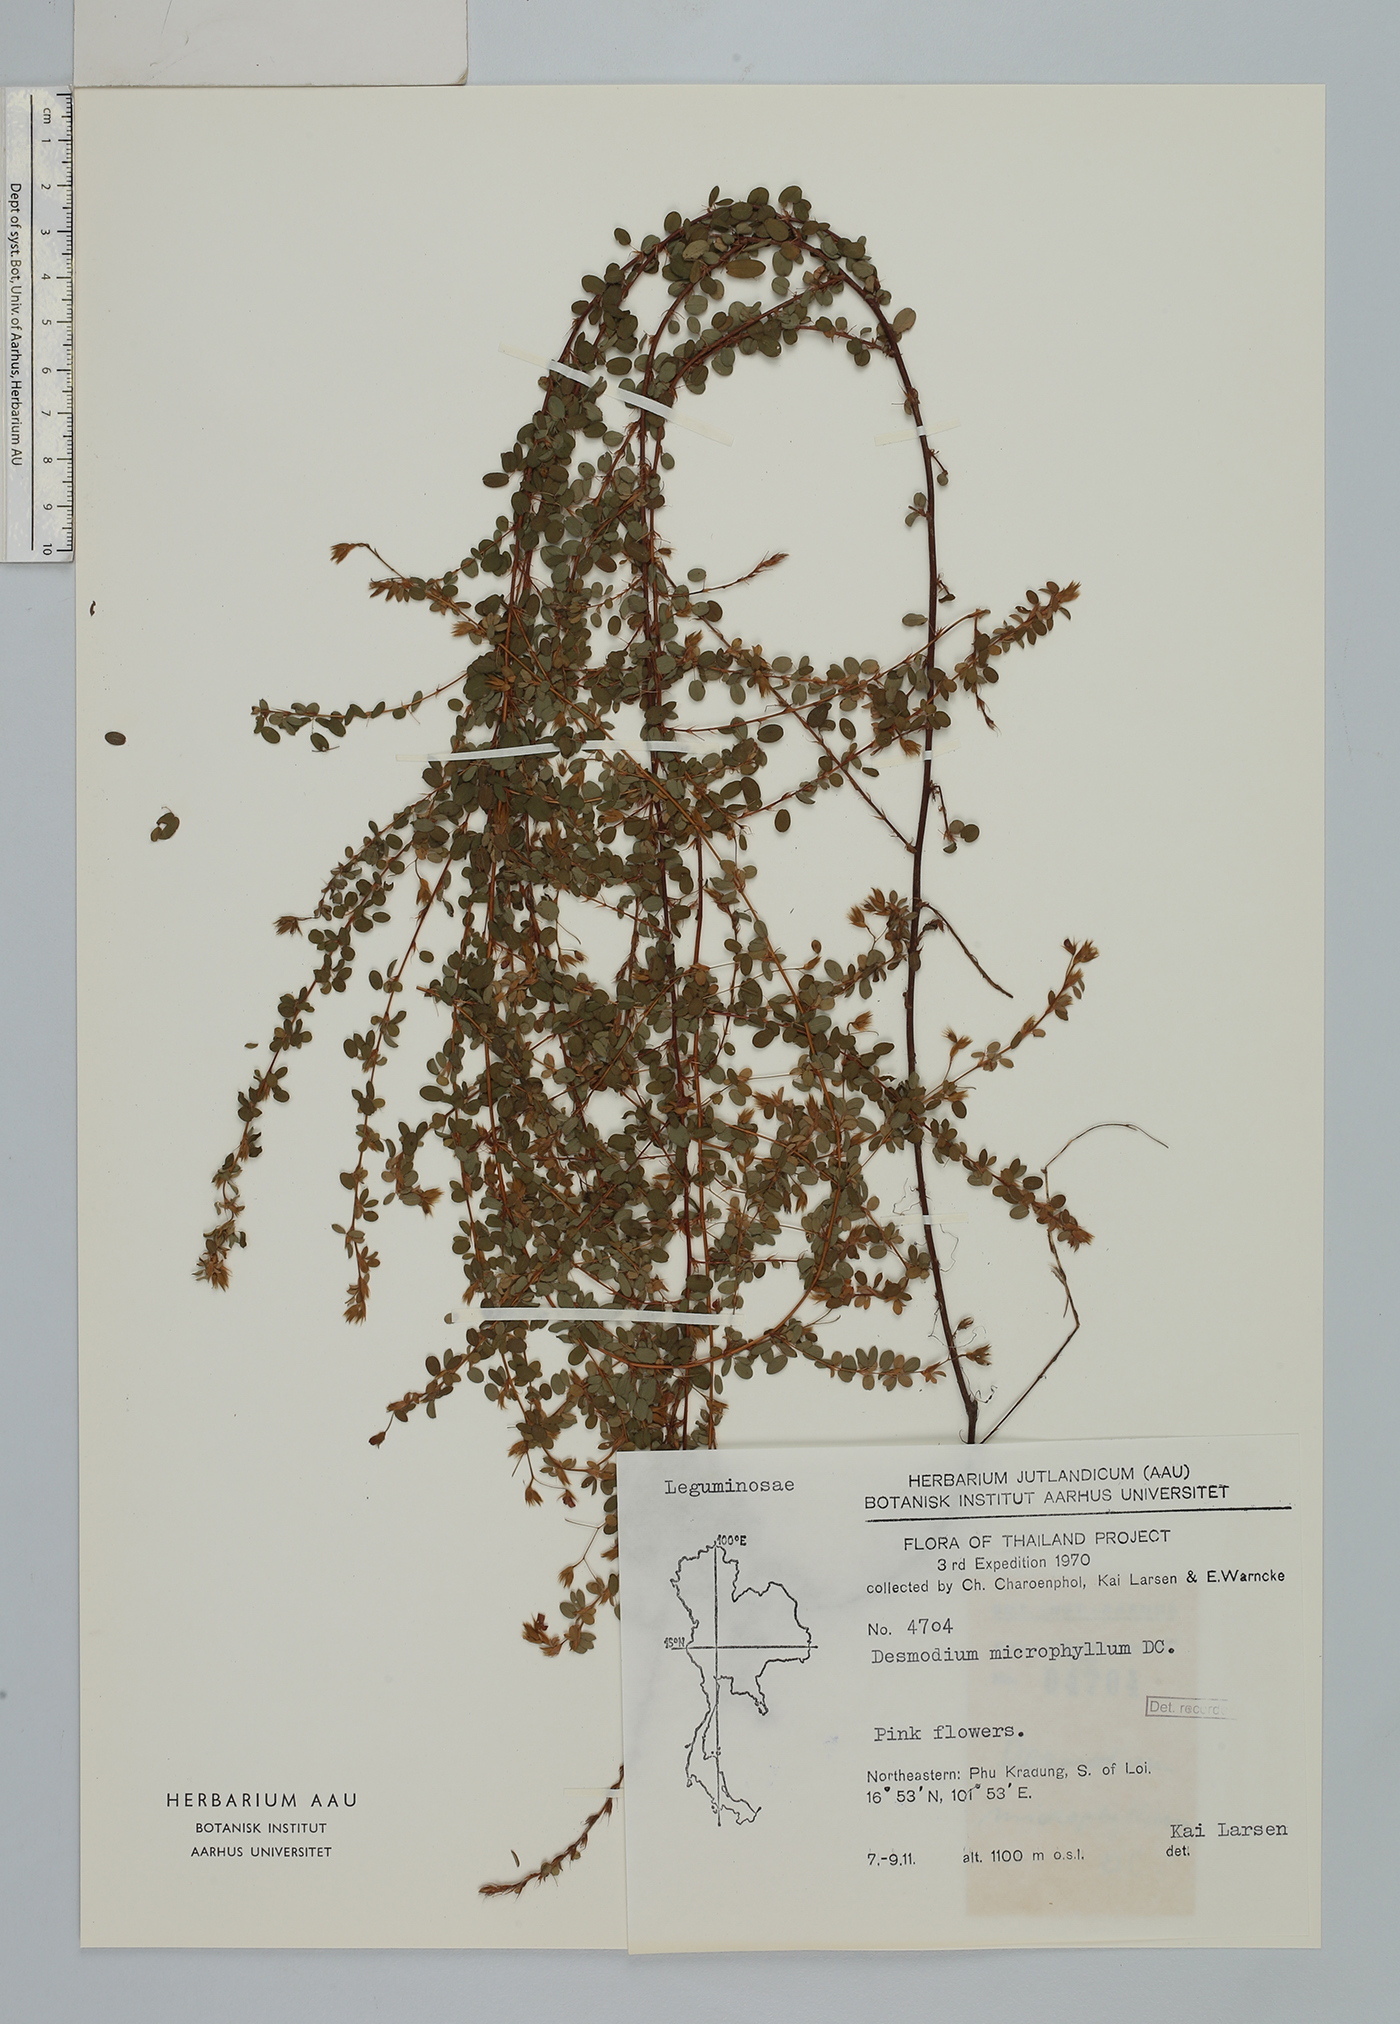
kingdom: Plantae
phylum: Tracheophyta
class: Magnoliopsida
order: Fabales
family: Fabaceae
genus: Leptodesmia
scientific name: Leptodesmia microphylla
